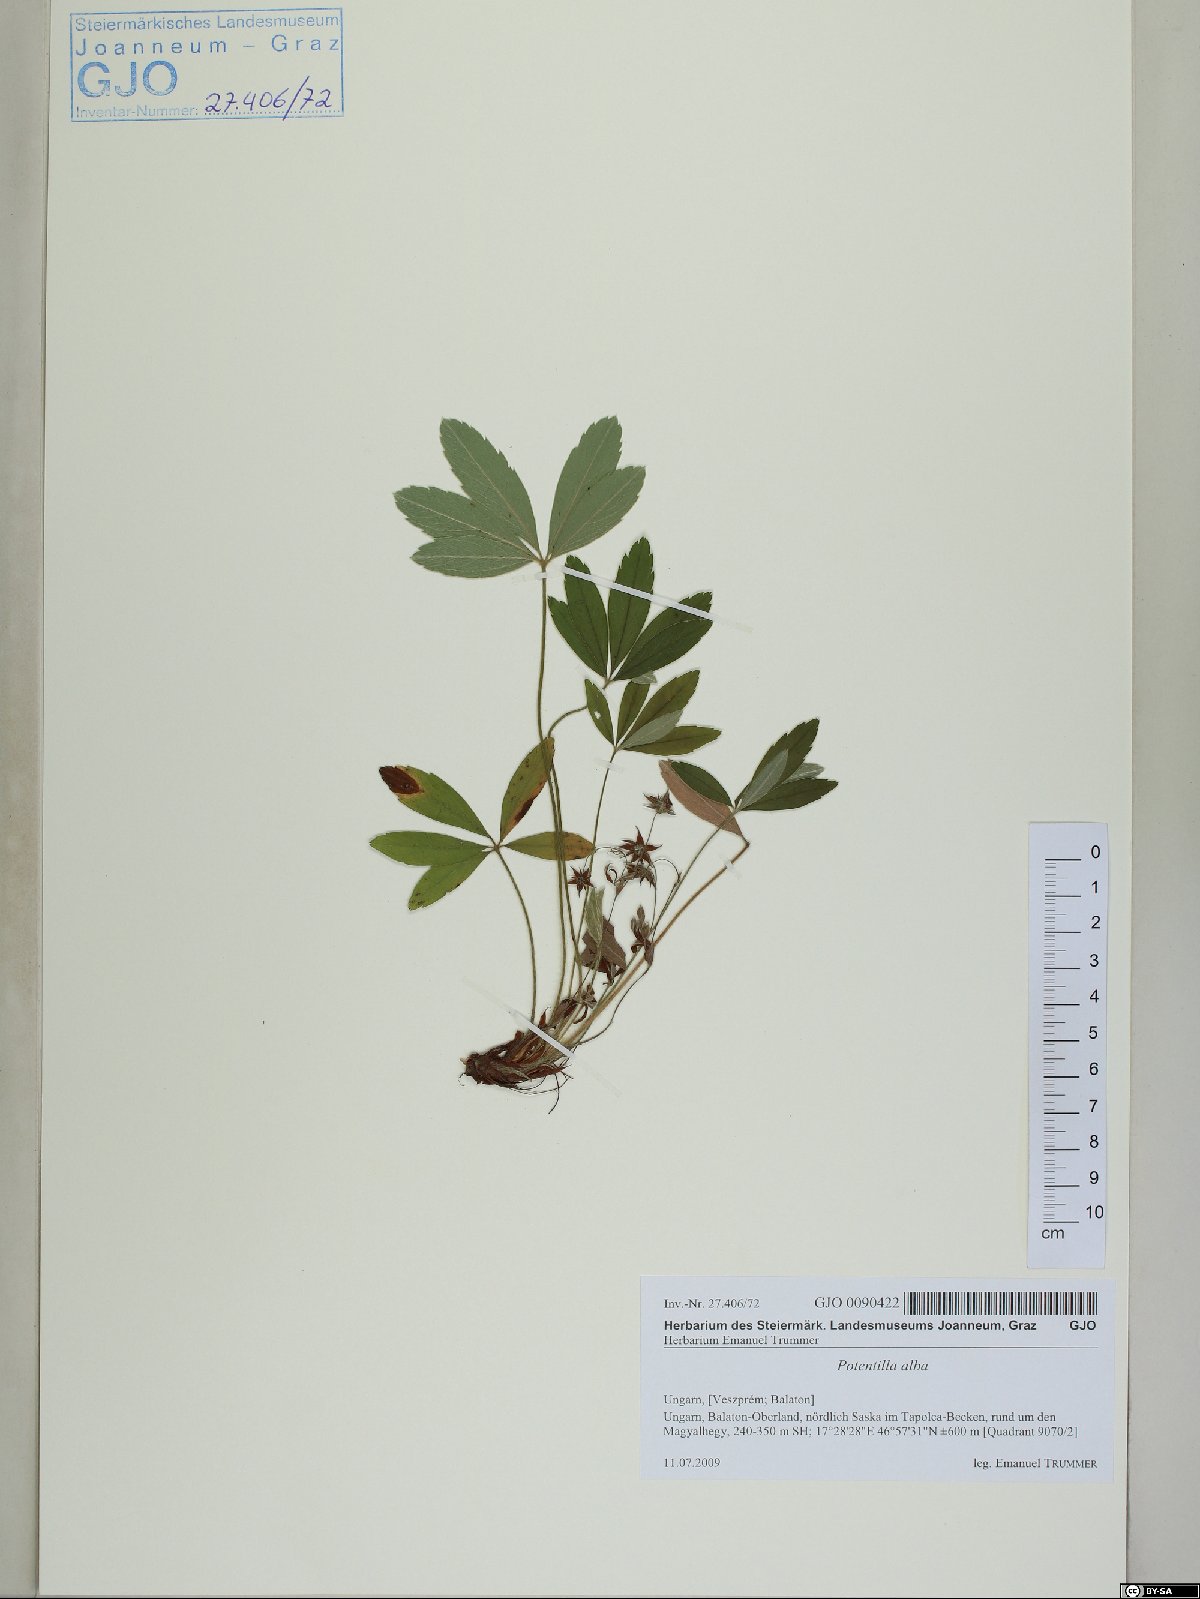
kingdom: Plantae
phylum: Tracheophyta
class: Magnoliopsida
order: Rosales
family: Rosaceae
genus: Potentilla
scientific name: Potentilla alba
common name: White cinquefoil
